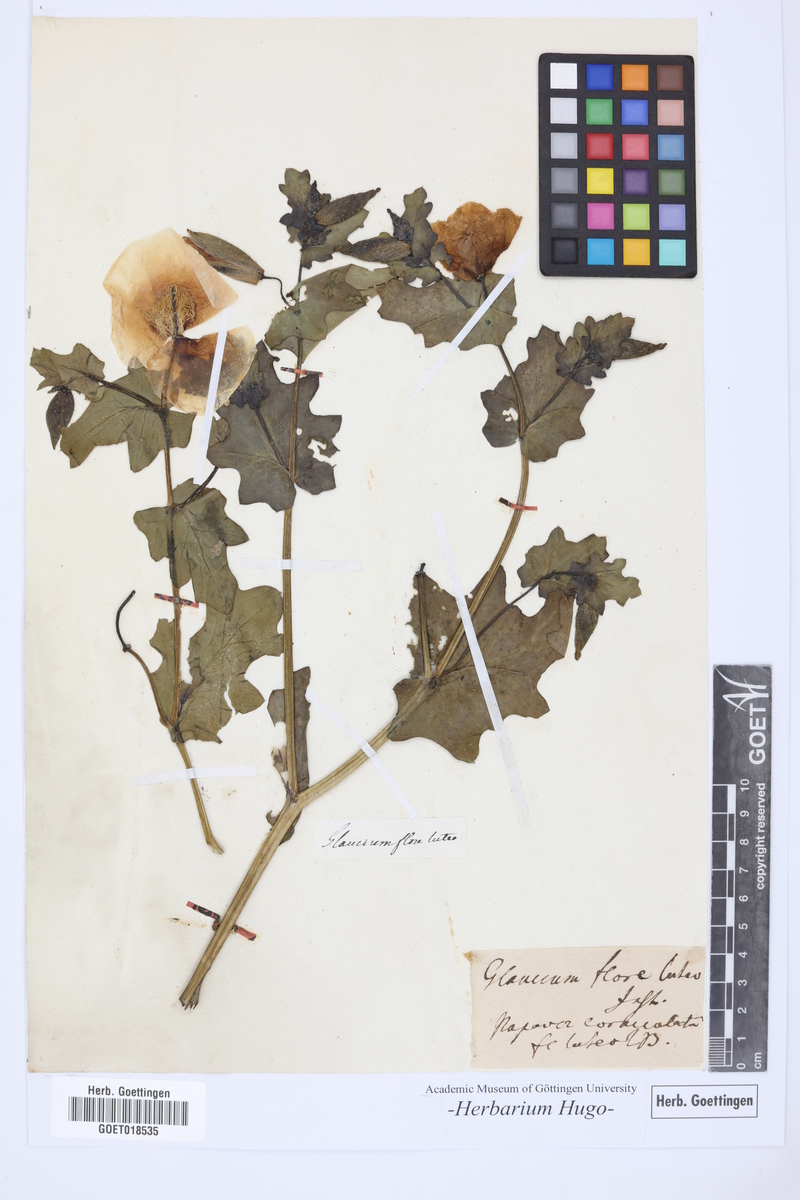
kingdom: Plantae
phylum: Tracheophyta
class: Magnoliopsida
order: Ranunculales
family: Papaveraceae
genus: Glaucium
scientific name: Glaucium flavum
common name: Yellow horned-poppy
